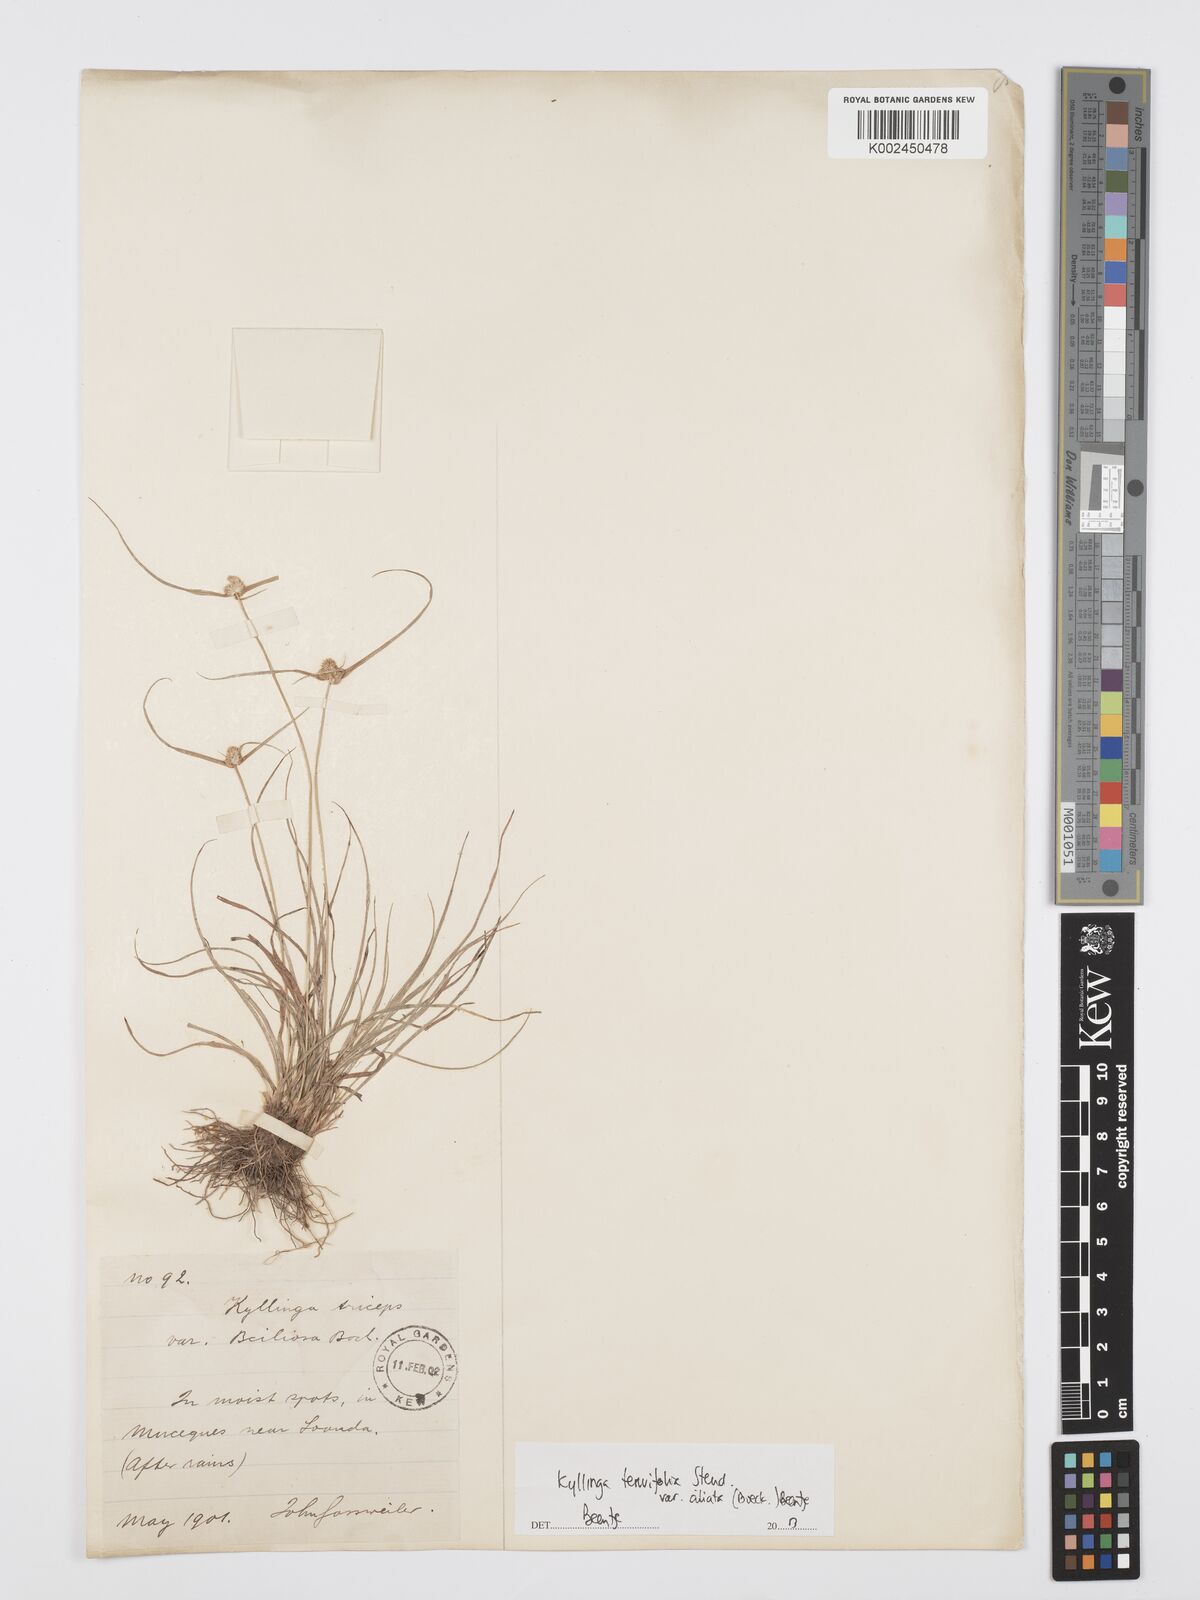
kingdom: Plantae
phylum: Tracheophyta
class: Liliopsida
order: Poales
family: Cyperaceae
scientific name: Cyperaceae
